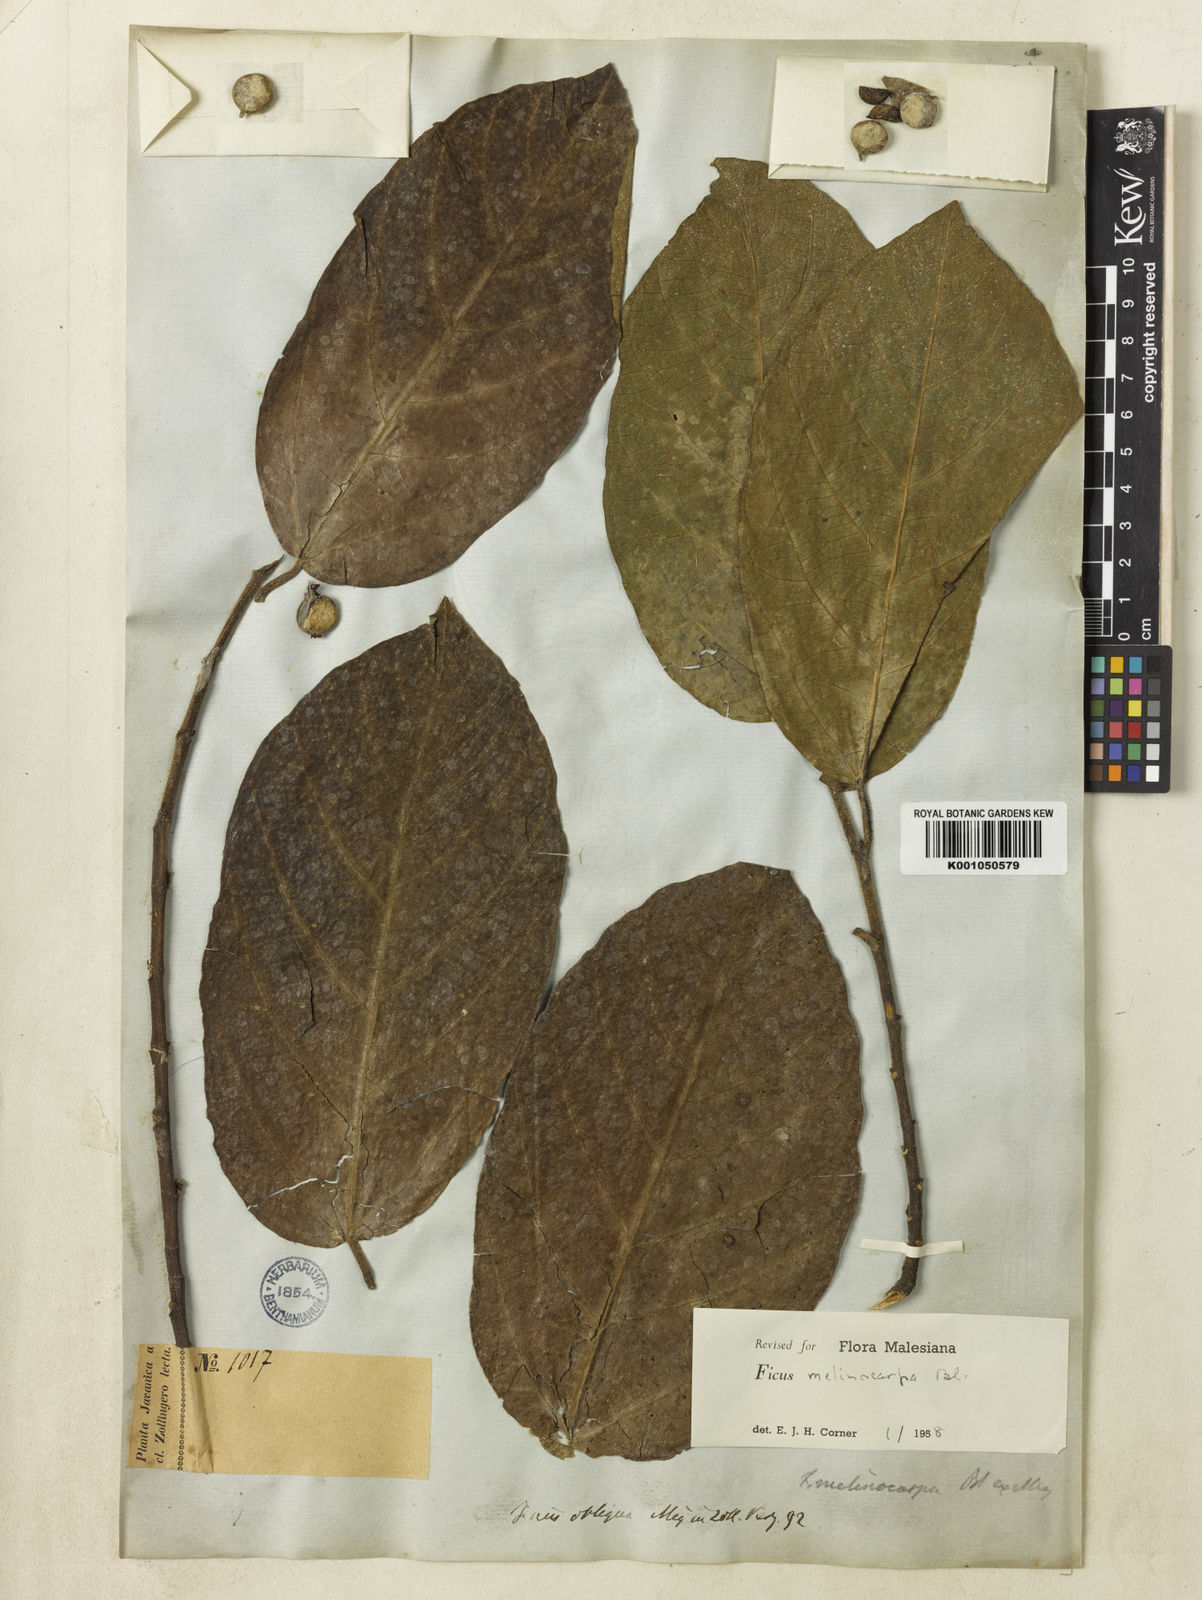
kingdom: Plantae
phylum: Tracheophyta
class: Magnoliopsida
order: Rosales
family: Moraceae
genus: Ficus
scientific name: Ficus melinocarpa
